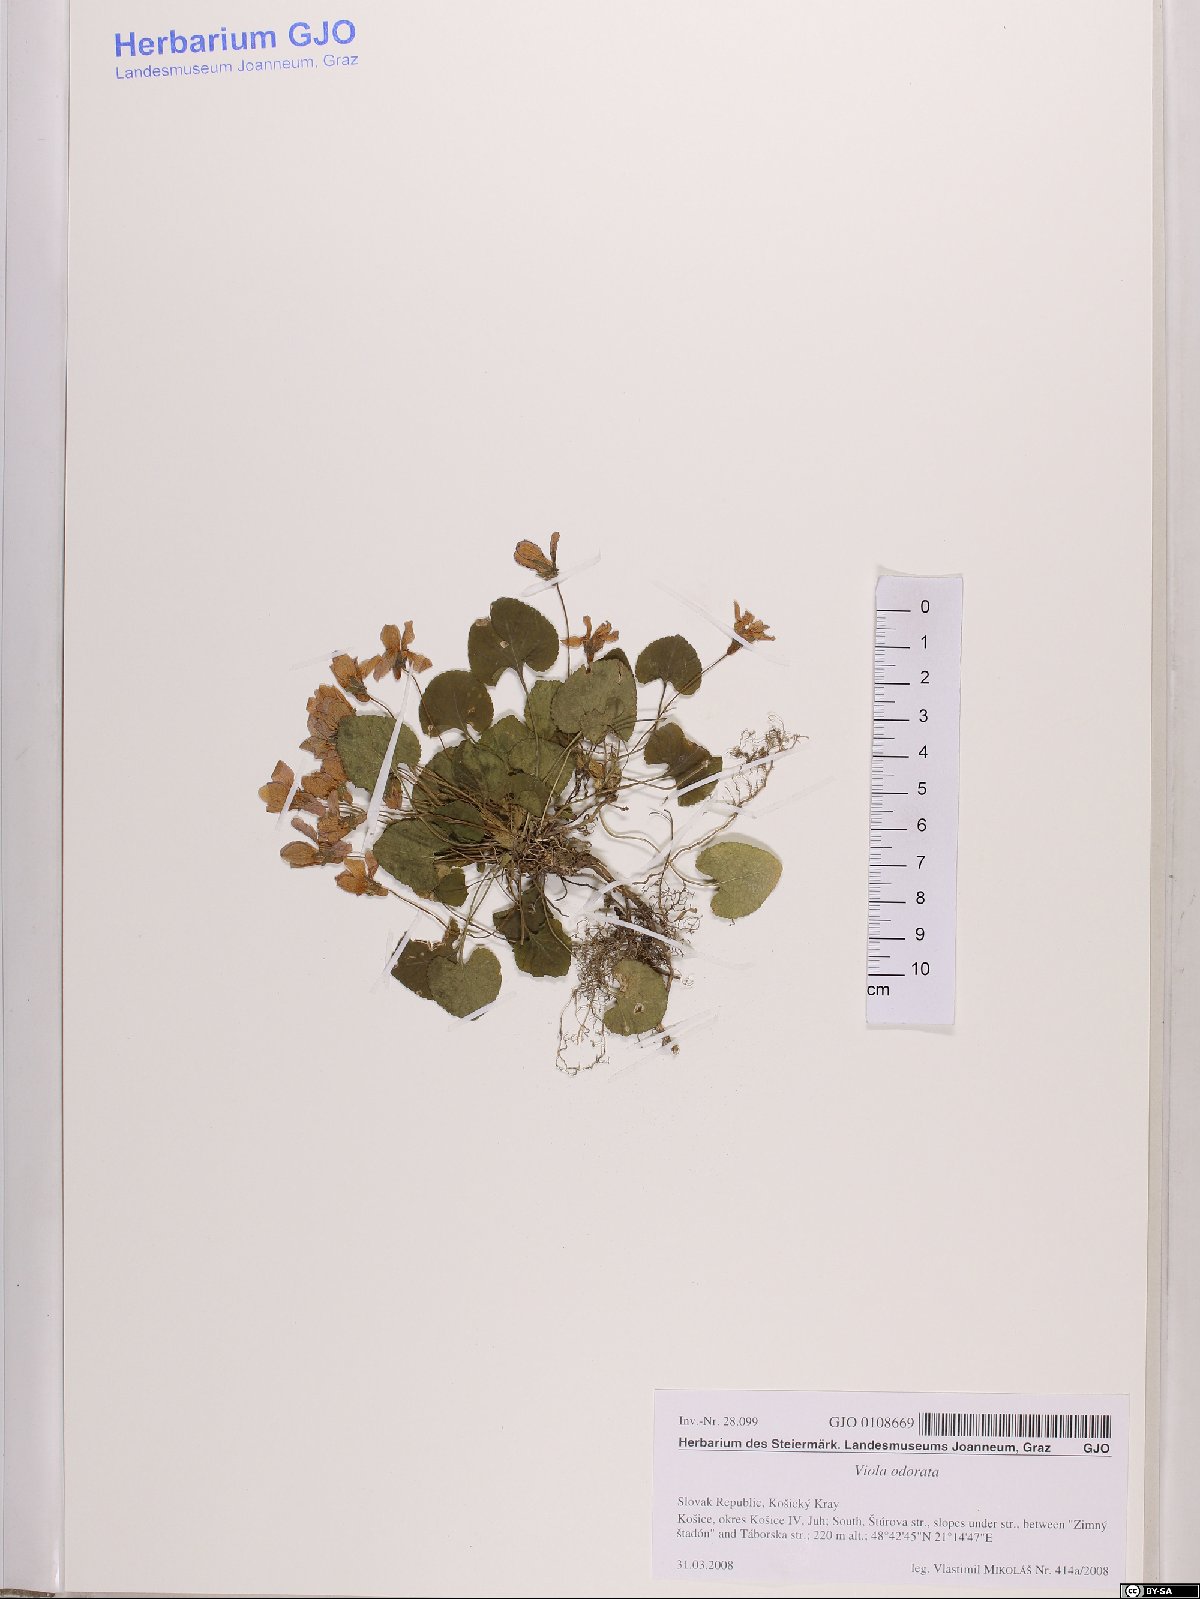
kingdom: Plantae
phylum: Tracheophyta
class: Magnoliopsida
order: Malpighiales
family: Violaceae
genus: Viola
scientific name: Viola odorata
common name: Sweet violet
